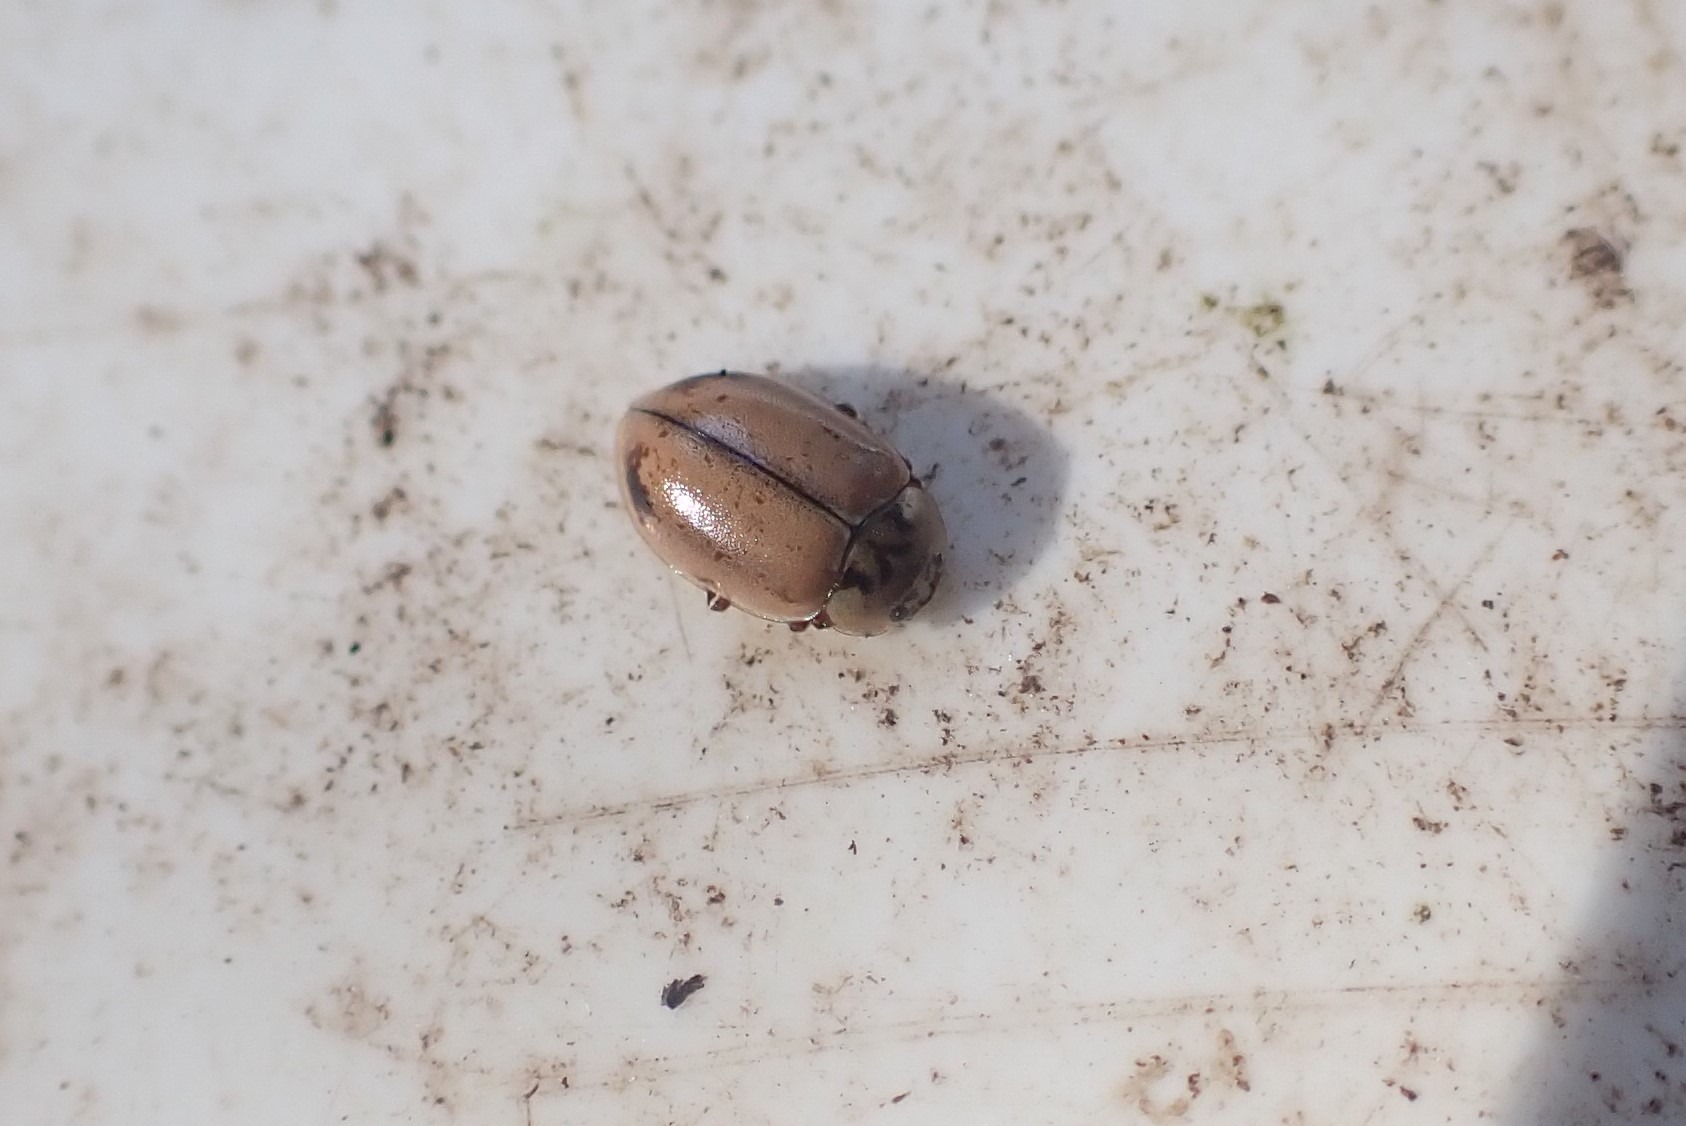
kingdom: Animalia
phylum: Arthropoda
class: Insecta
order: Coleoptera
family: Coccinellidae
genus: Aphidecta
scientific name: Aphidecta obliterata
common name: Uplettet mariehøne
